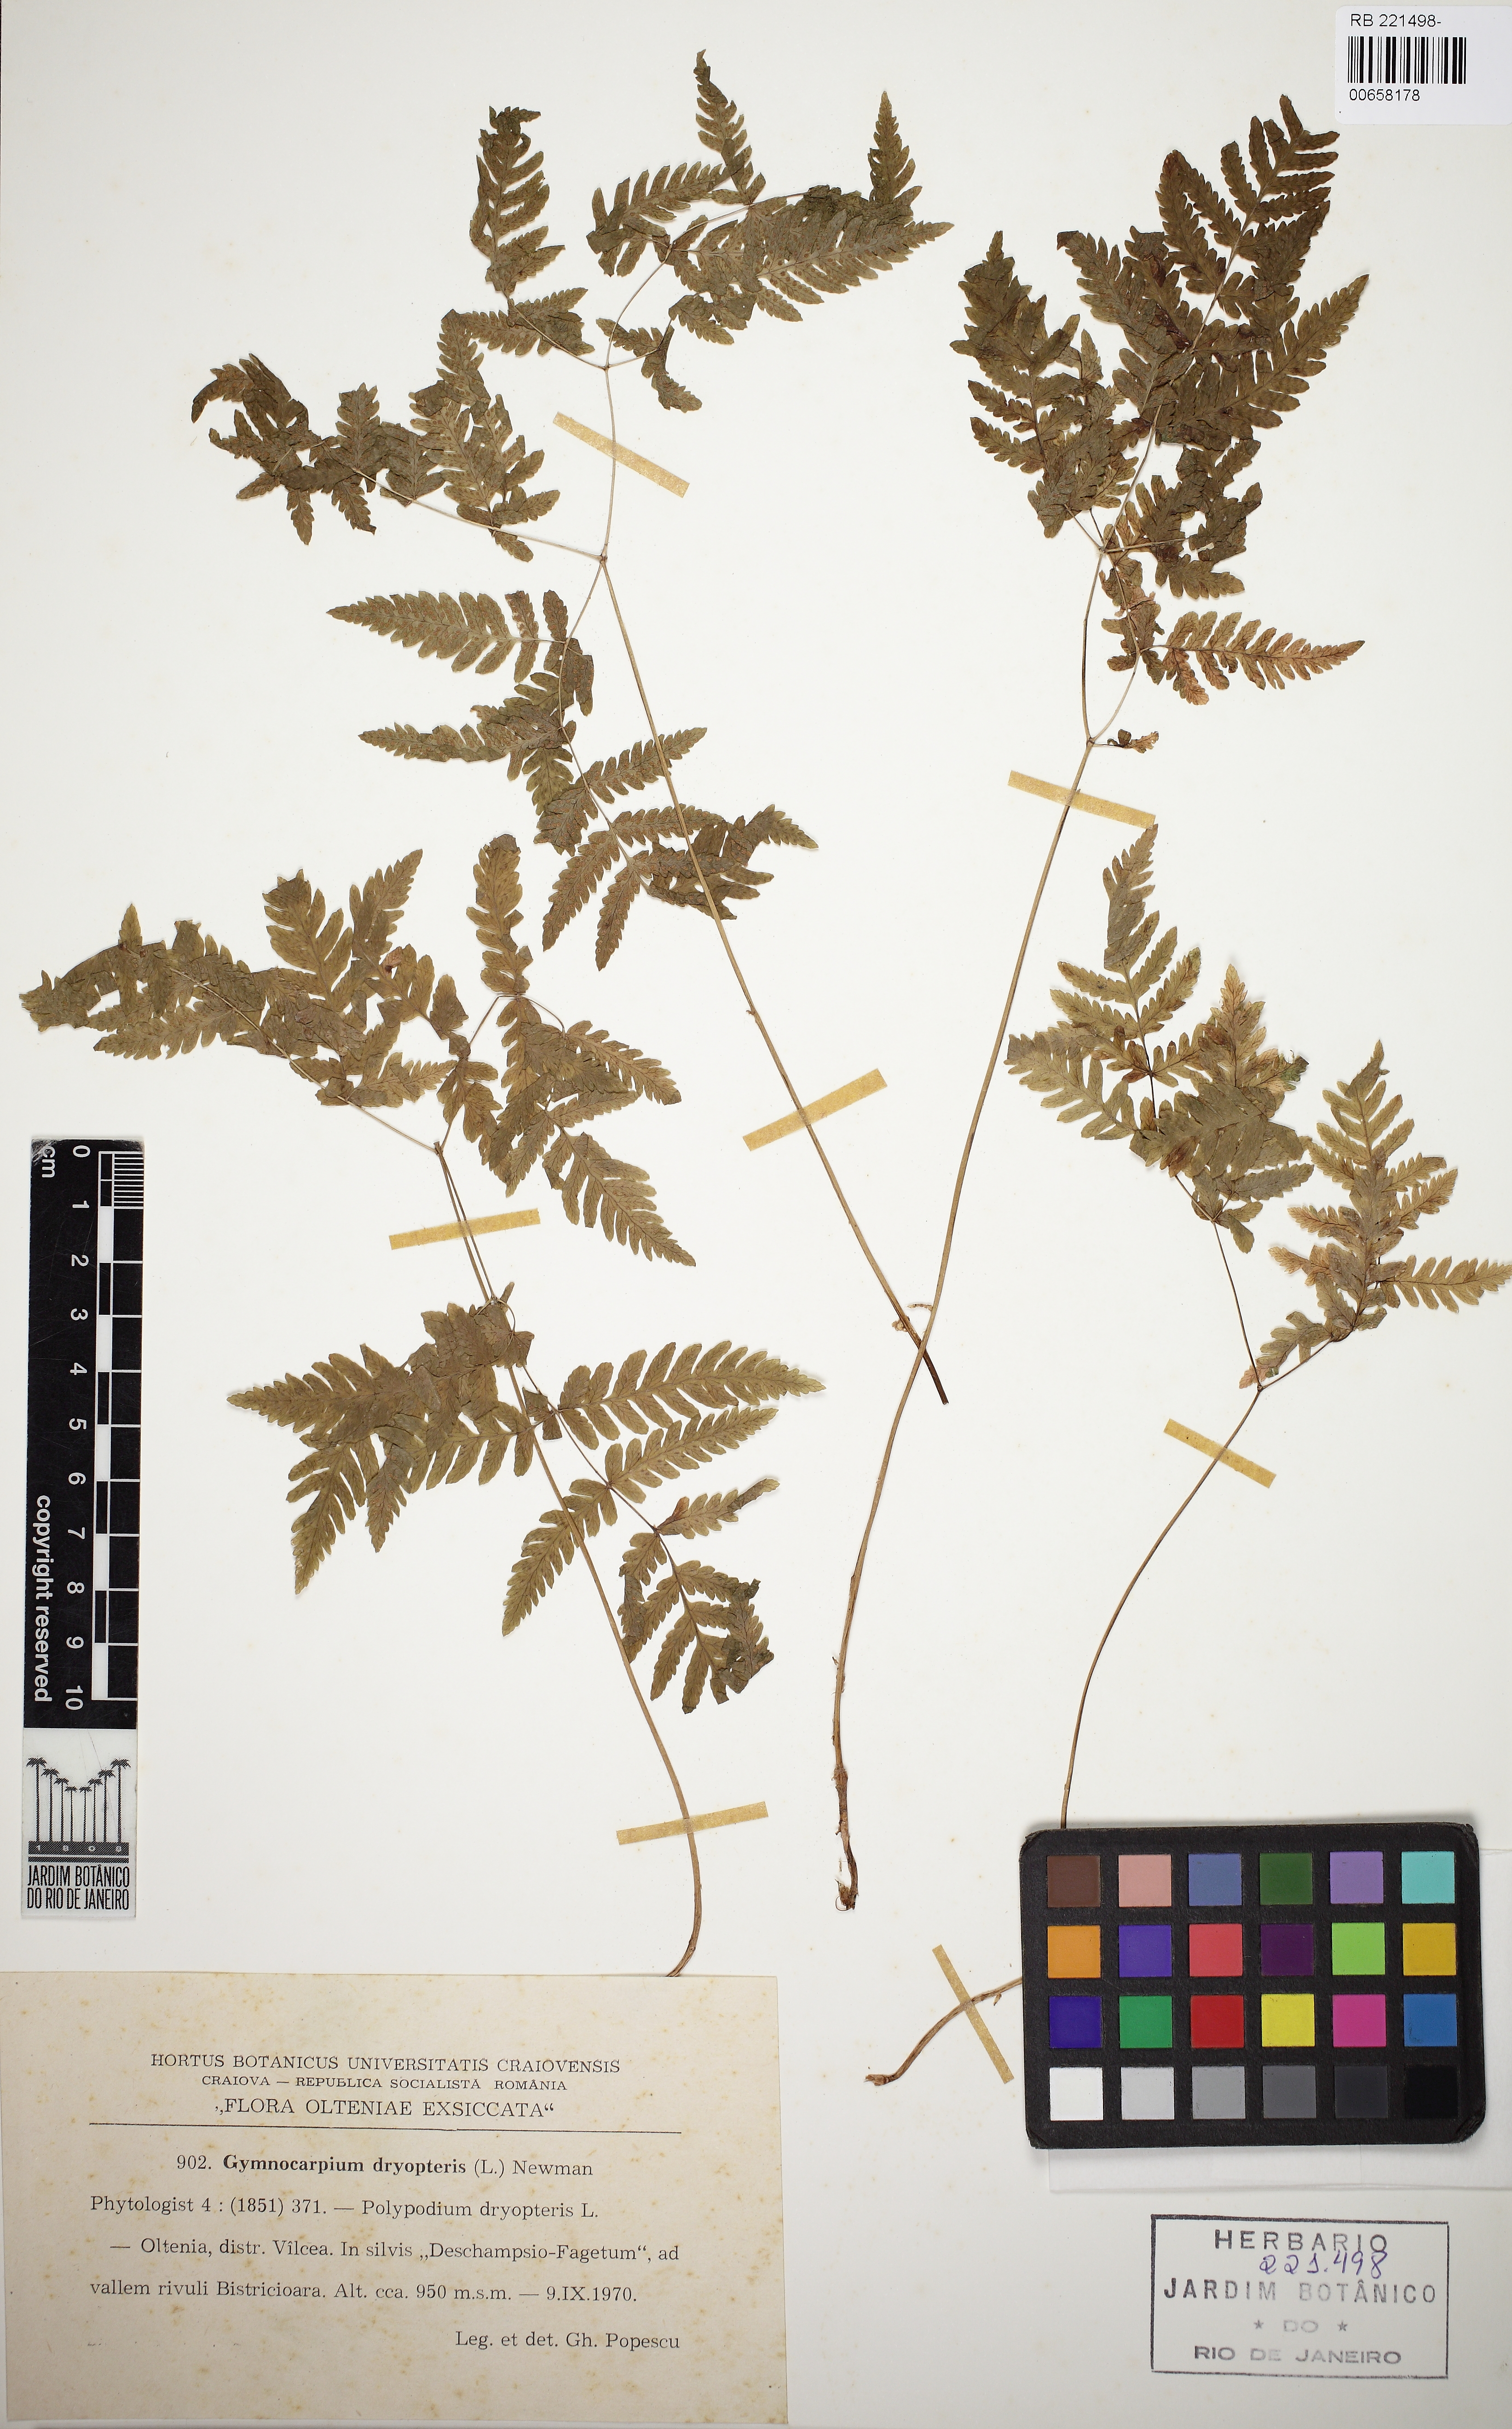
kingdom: Plantae
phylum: Tracheophyta
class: Polypodiopsida
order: Polypodiales
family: Cystopteridaceae
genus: Gymnocarpium
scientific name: Gymnocarpium dryopteris
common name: Oak fern
